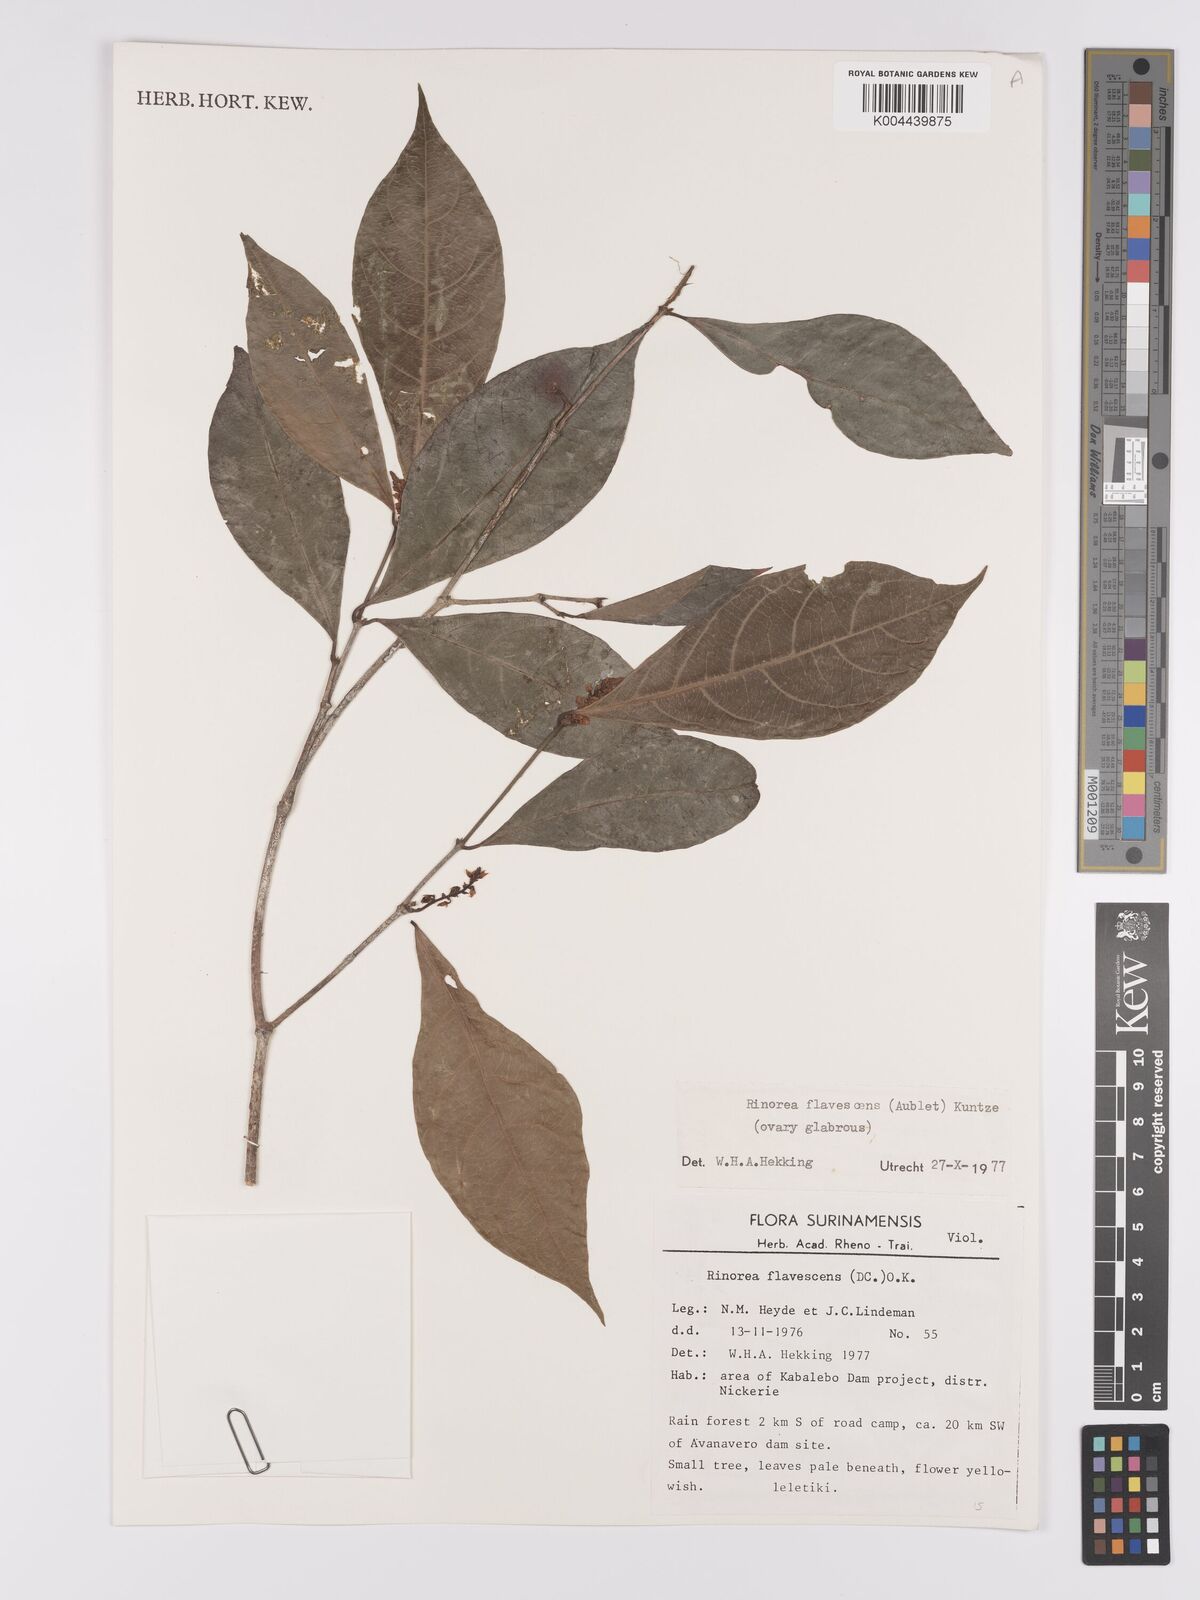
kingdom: Plantae
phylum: Tracheophyta
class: Magnoliopsida
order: Malpighiales
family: Violaceae
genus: Rinorea
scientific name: Rinorea flavescens
